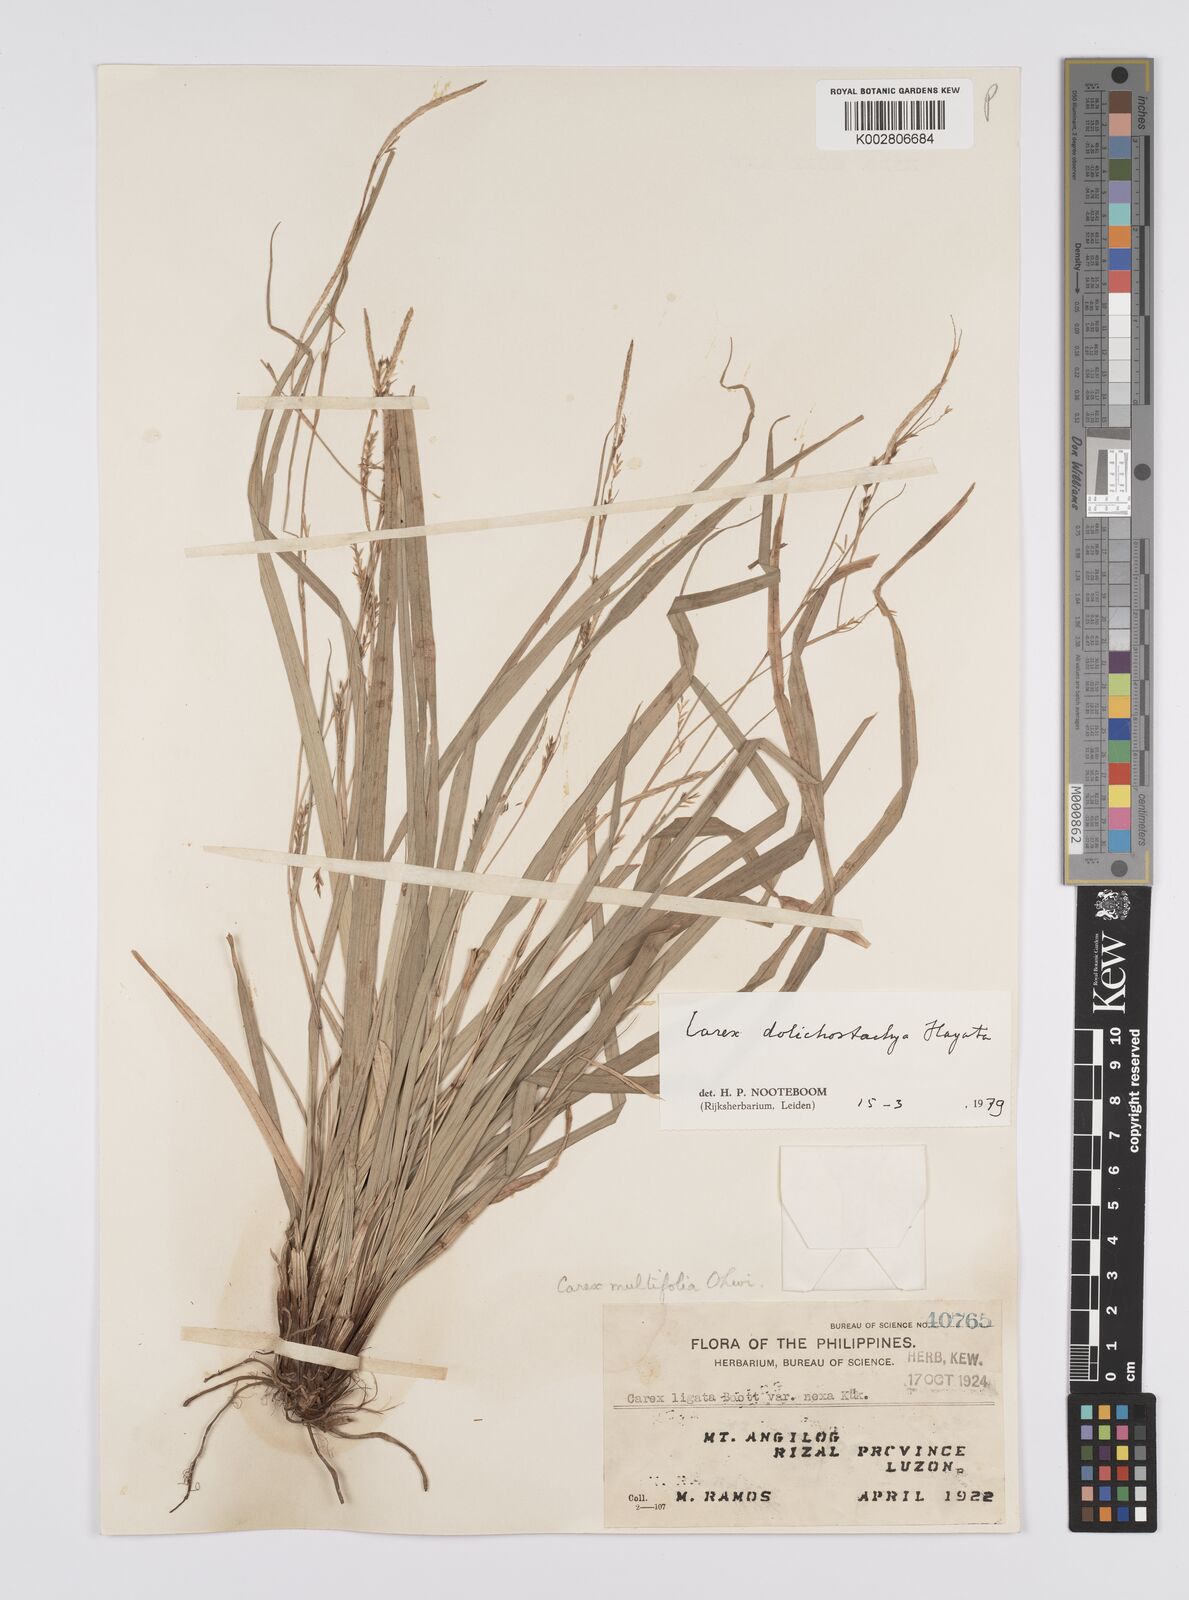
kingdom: Plantae
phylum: Tracheophyta
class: Liliopsida
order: Poales
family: Cyperaceae
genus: Carex
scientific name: Carex dolichostachya
